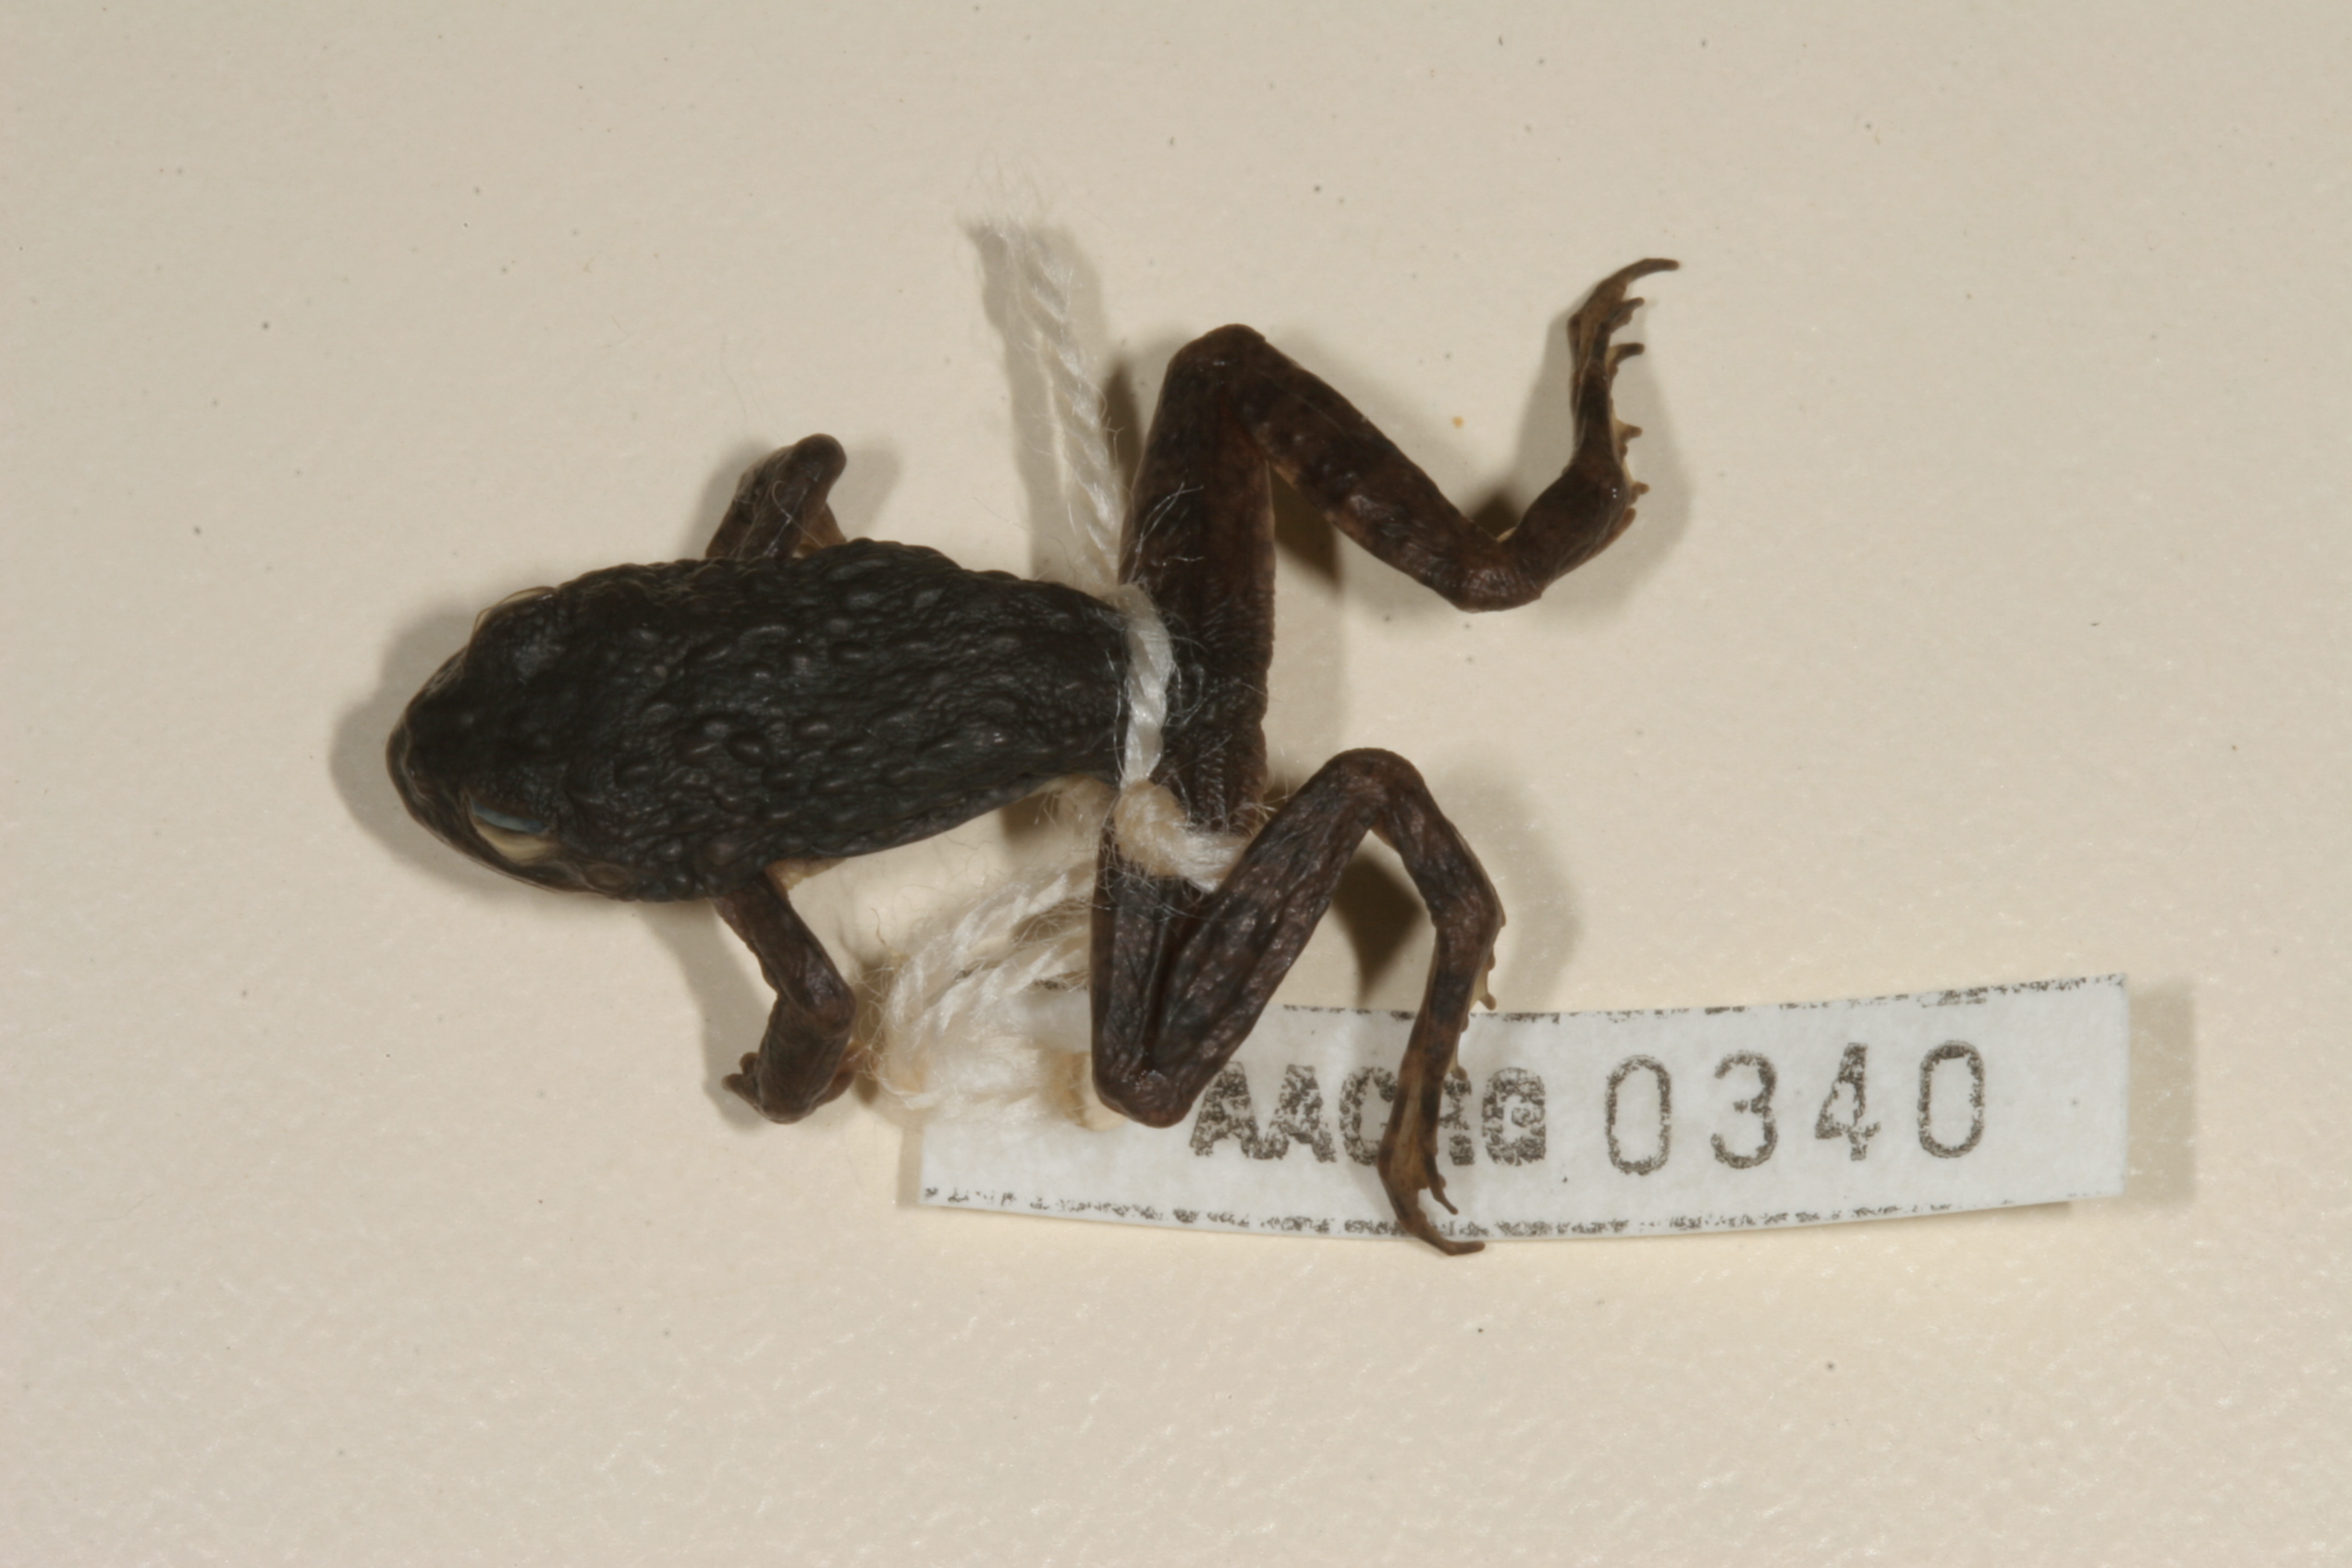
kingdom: Animalia
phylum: Chordata
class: Amphibia
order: Anura
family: Pyxicephalidae
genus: Amietia
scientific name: Amietia vertebralis
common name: Drakensberg stream frog
